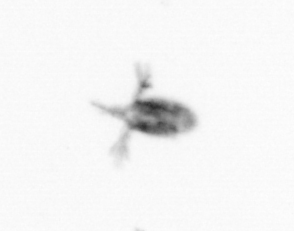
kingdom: Animalia
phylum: Arthropoda
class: Copepoda
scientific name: Copepoda
